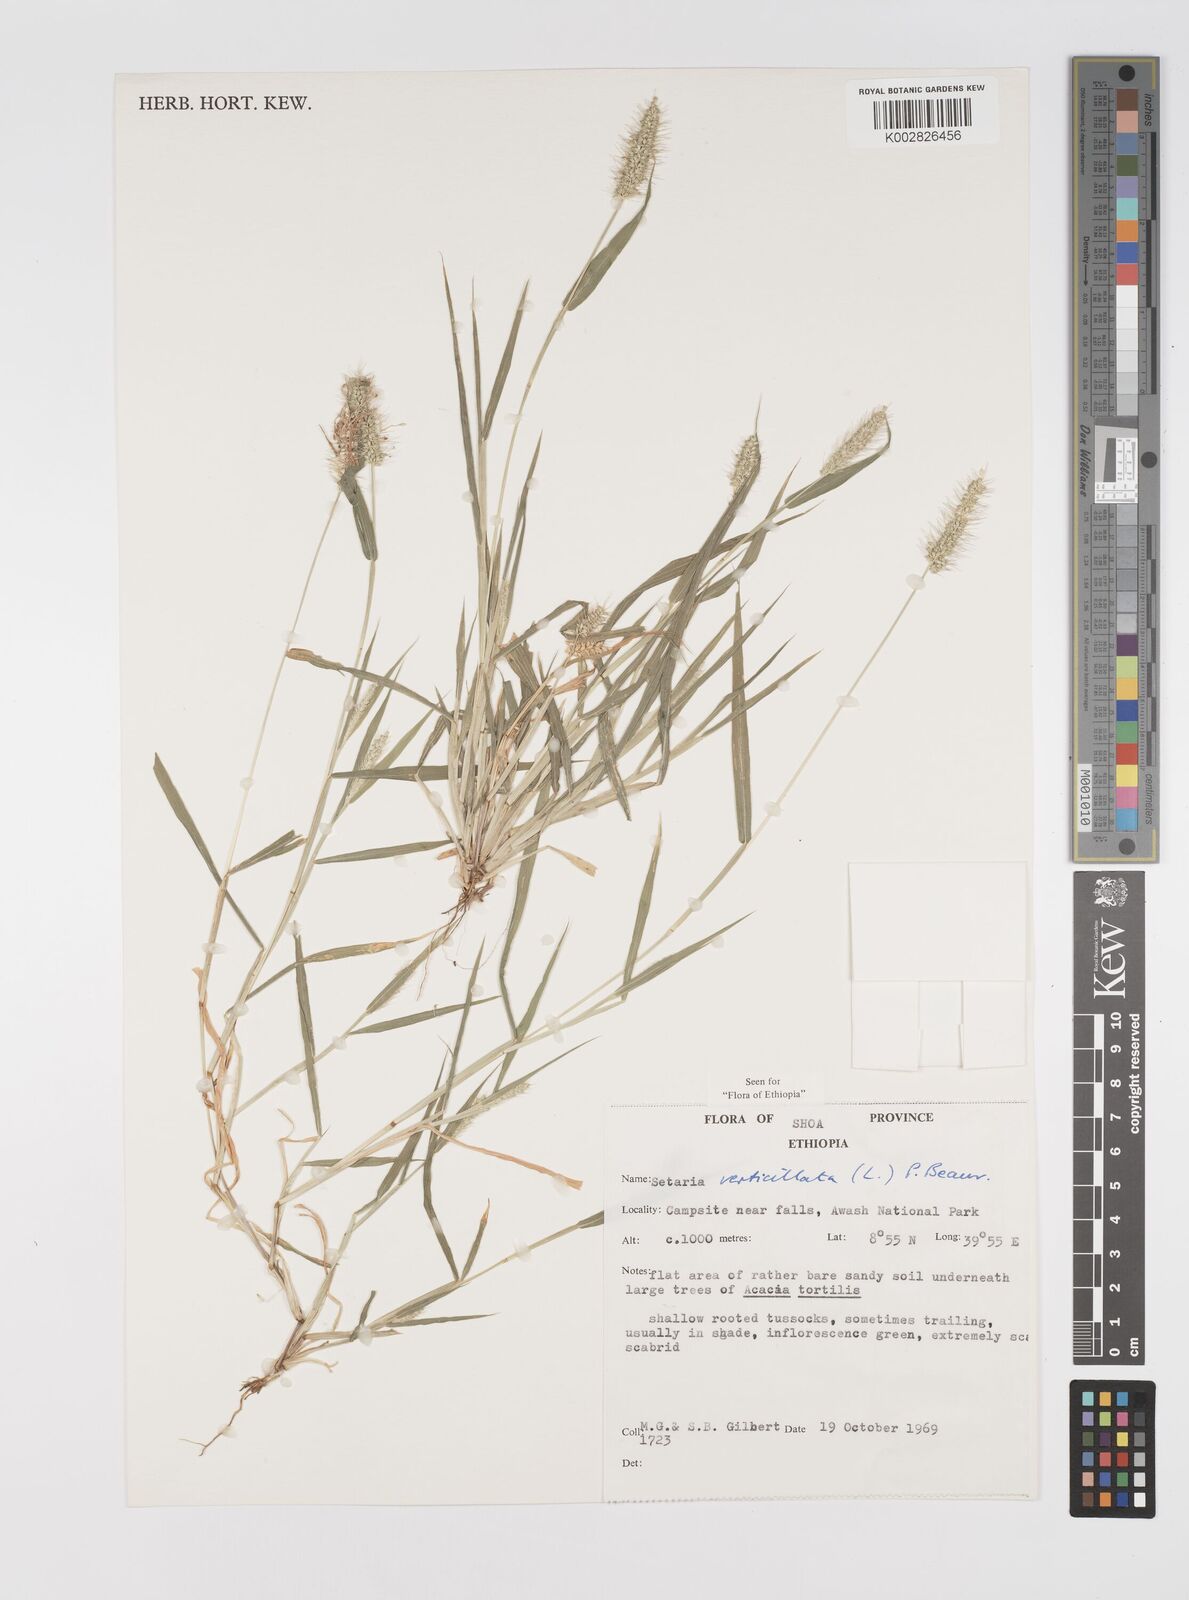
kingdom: Plantae
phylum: Tracheophyta
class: Liliopsida
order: Poales
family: Poaceae
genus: Setaria
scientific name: Setaria verticillata
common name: Hooked bristlegrass
